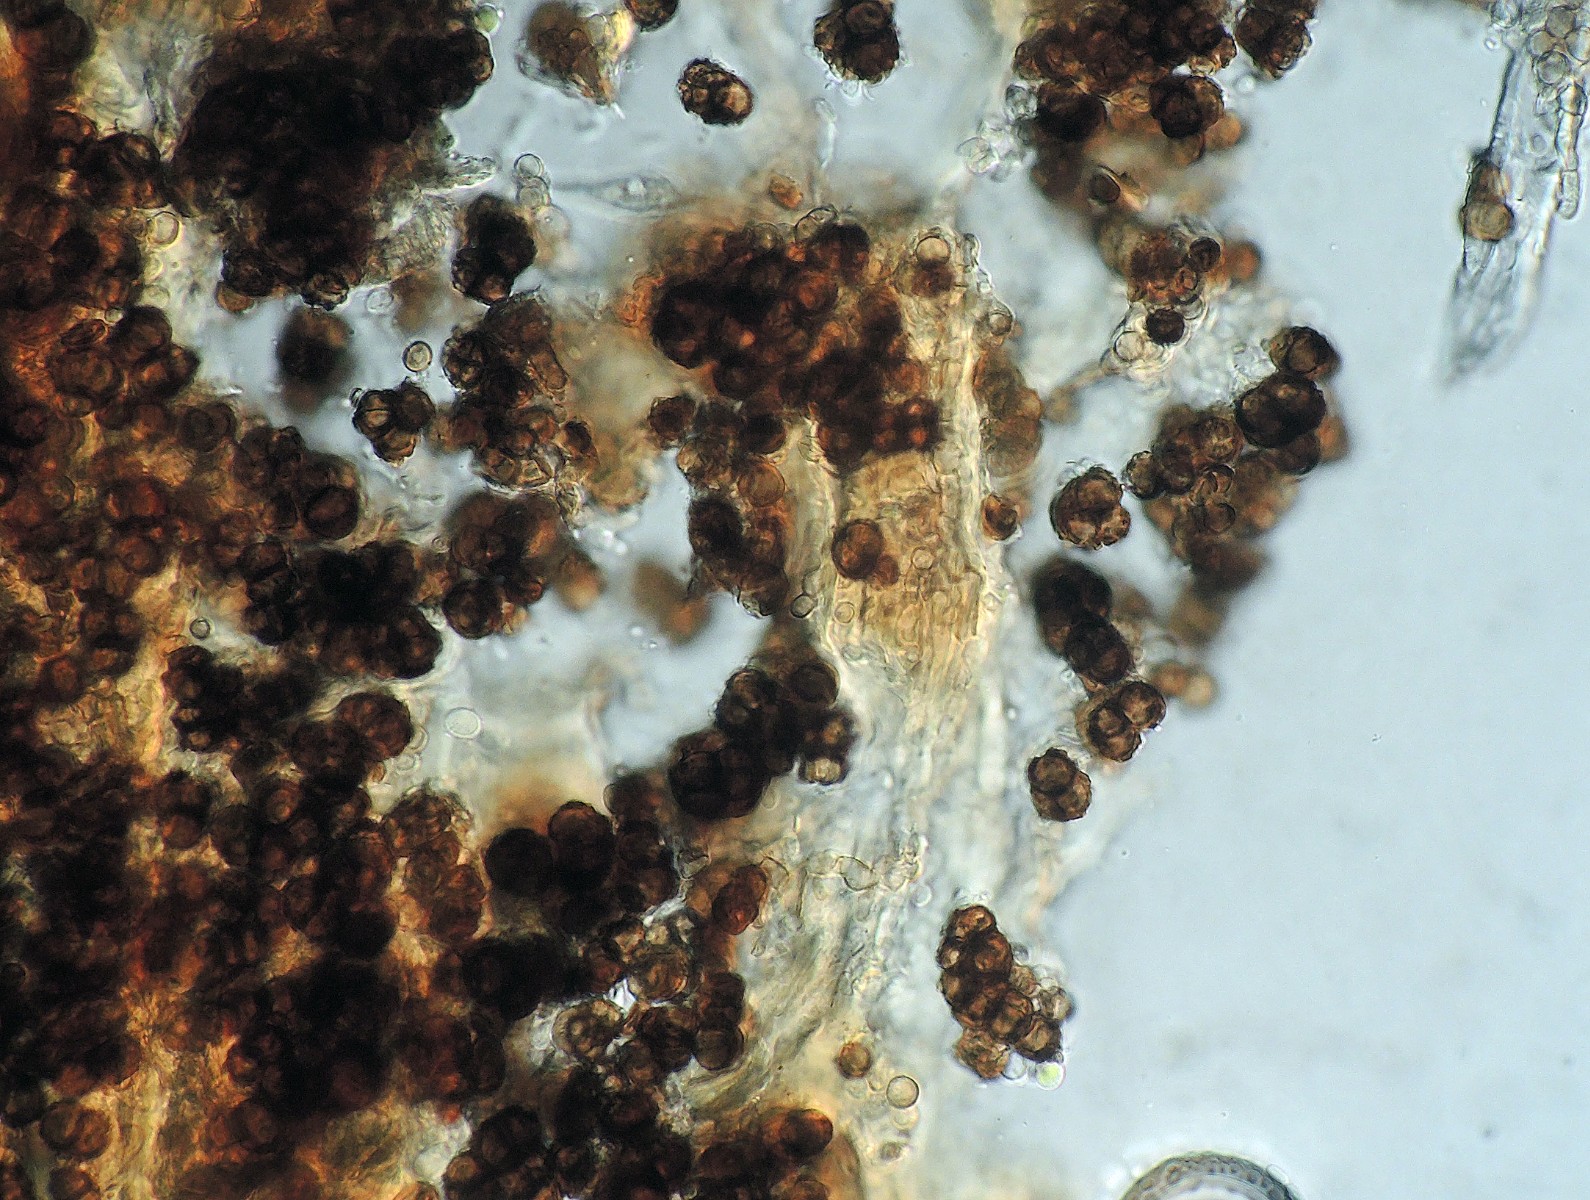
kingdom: Fungi
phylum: Ascomycota
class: Dothideomycetes
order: Dothideales
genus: Monodictys
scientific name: Monodictys castaneae
